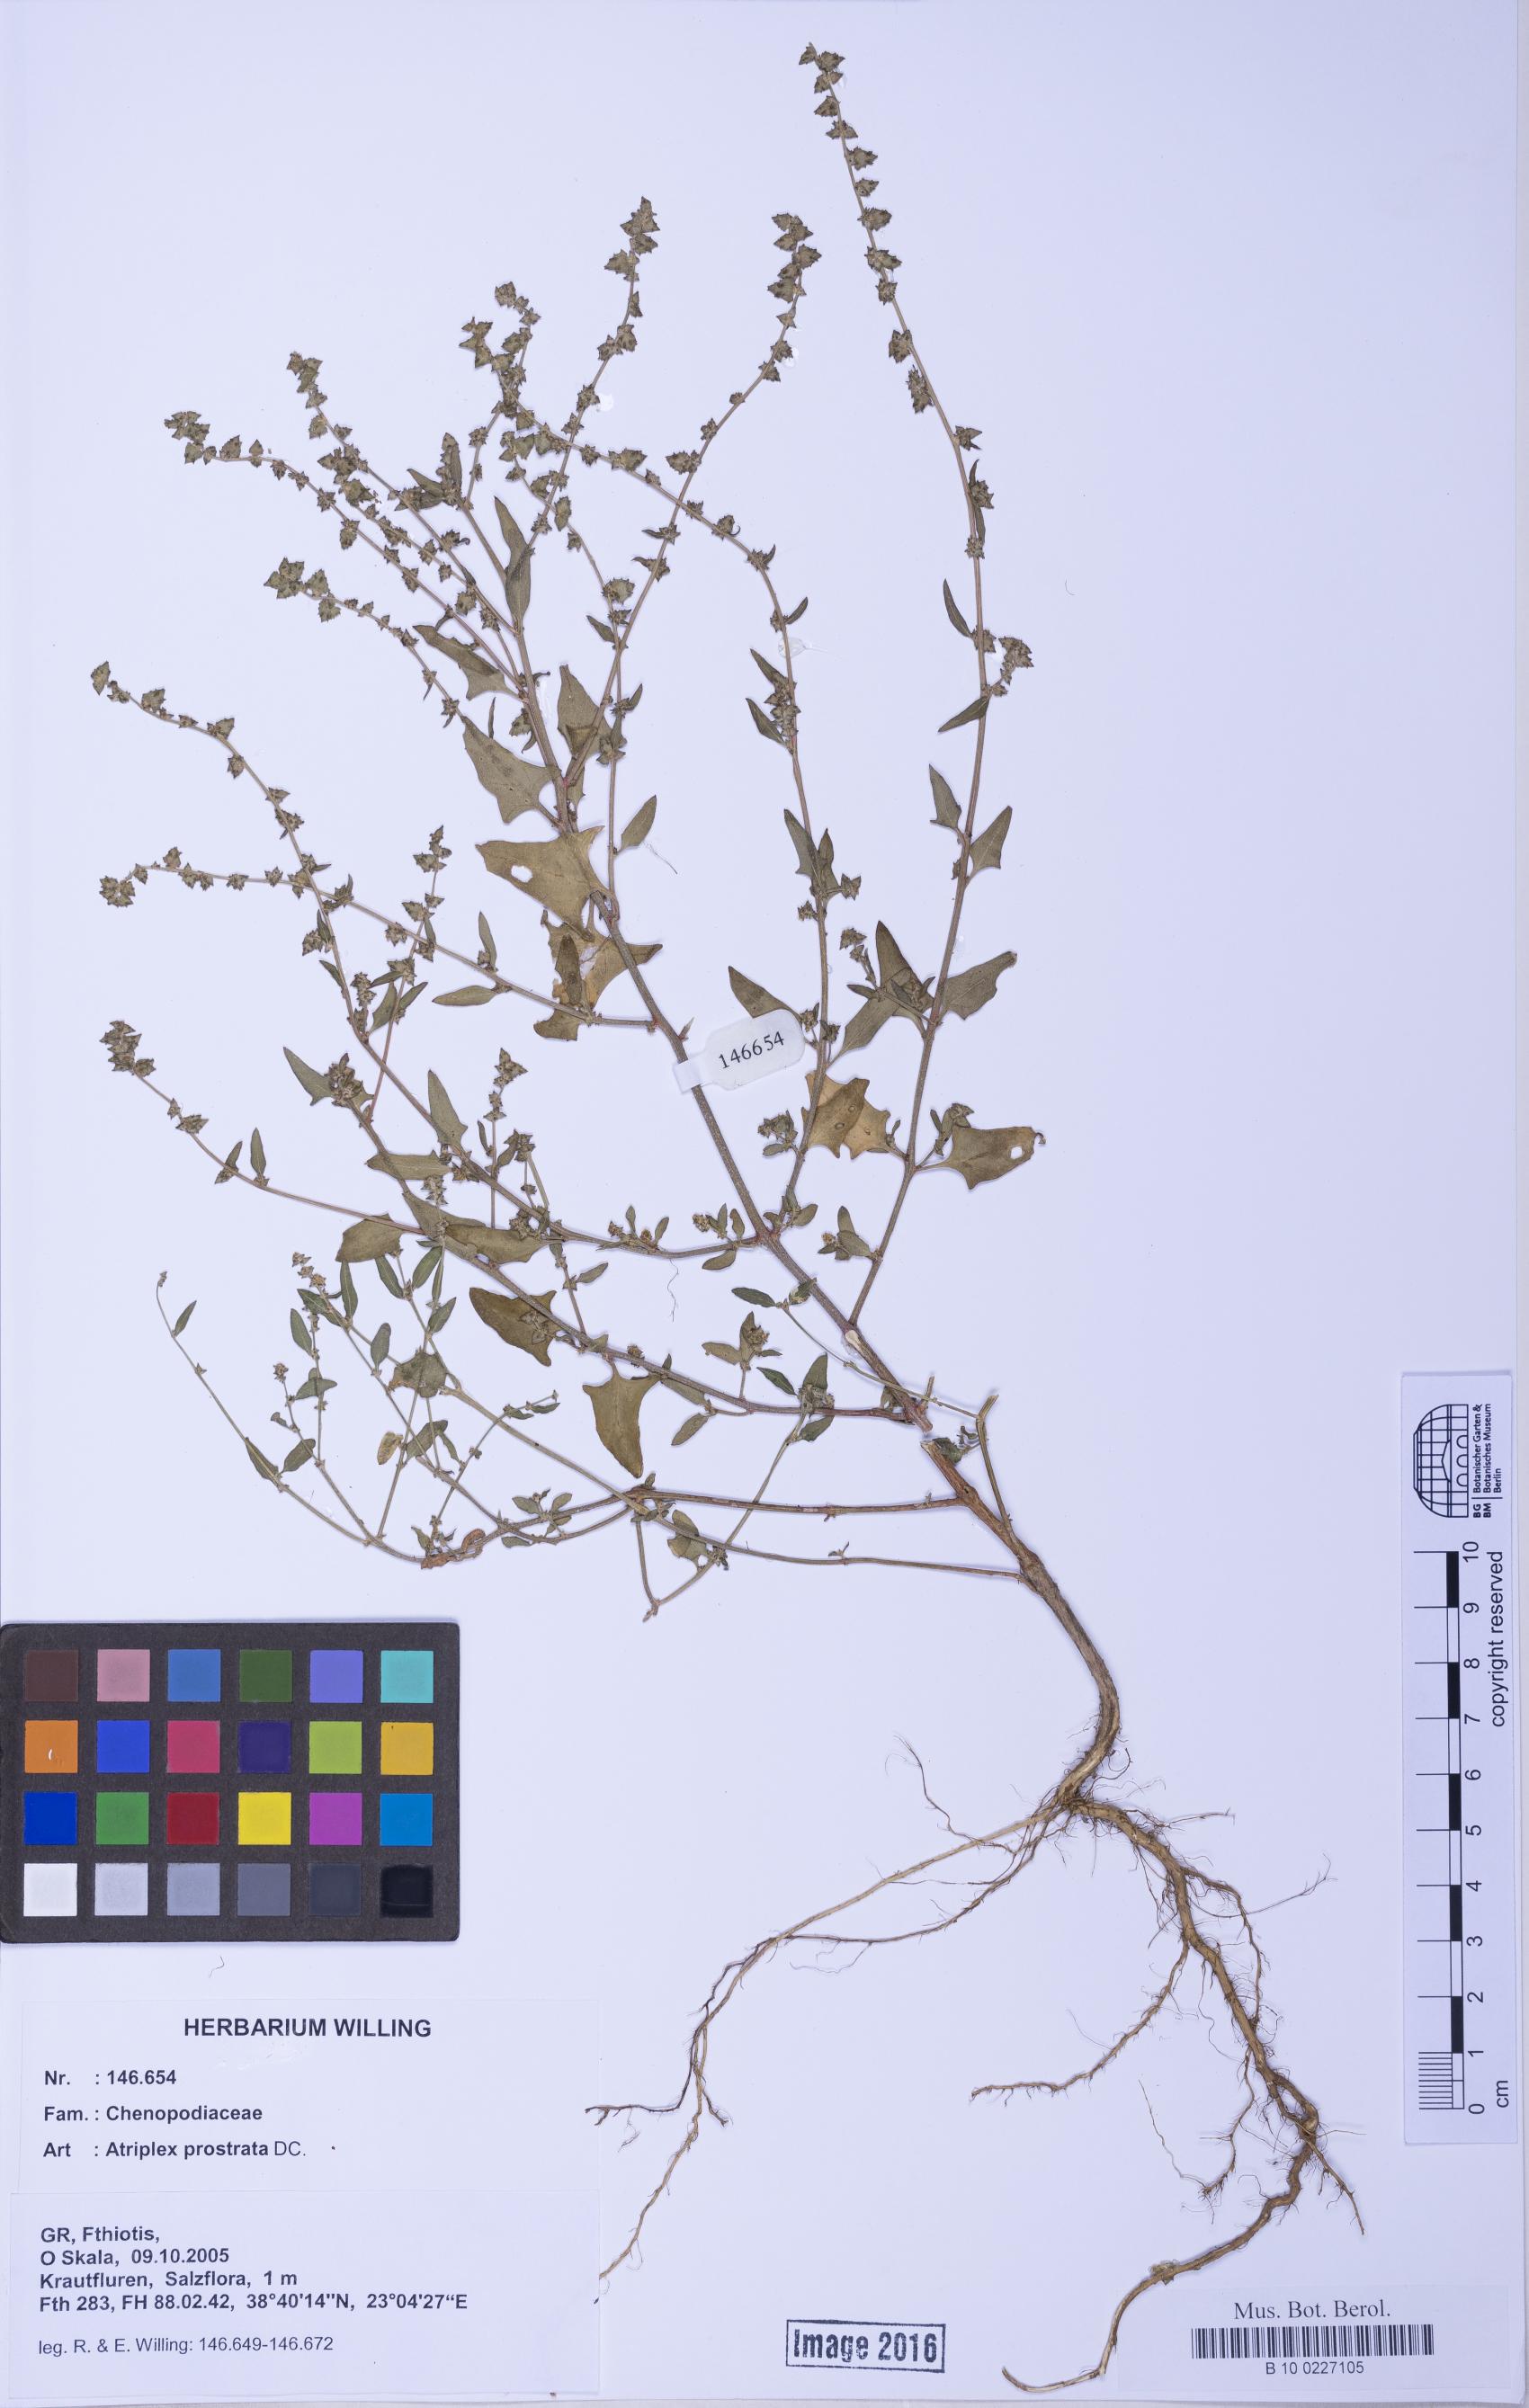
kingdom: Plantae
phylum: Tracheophyta
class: Magnoliopsida
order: Caryophyllales
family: Amaranthaceae
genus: Atriplex
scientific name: Atriplex prostrata
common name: Spear-leaved orache
